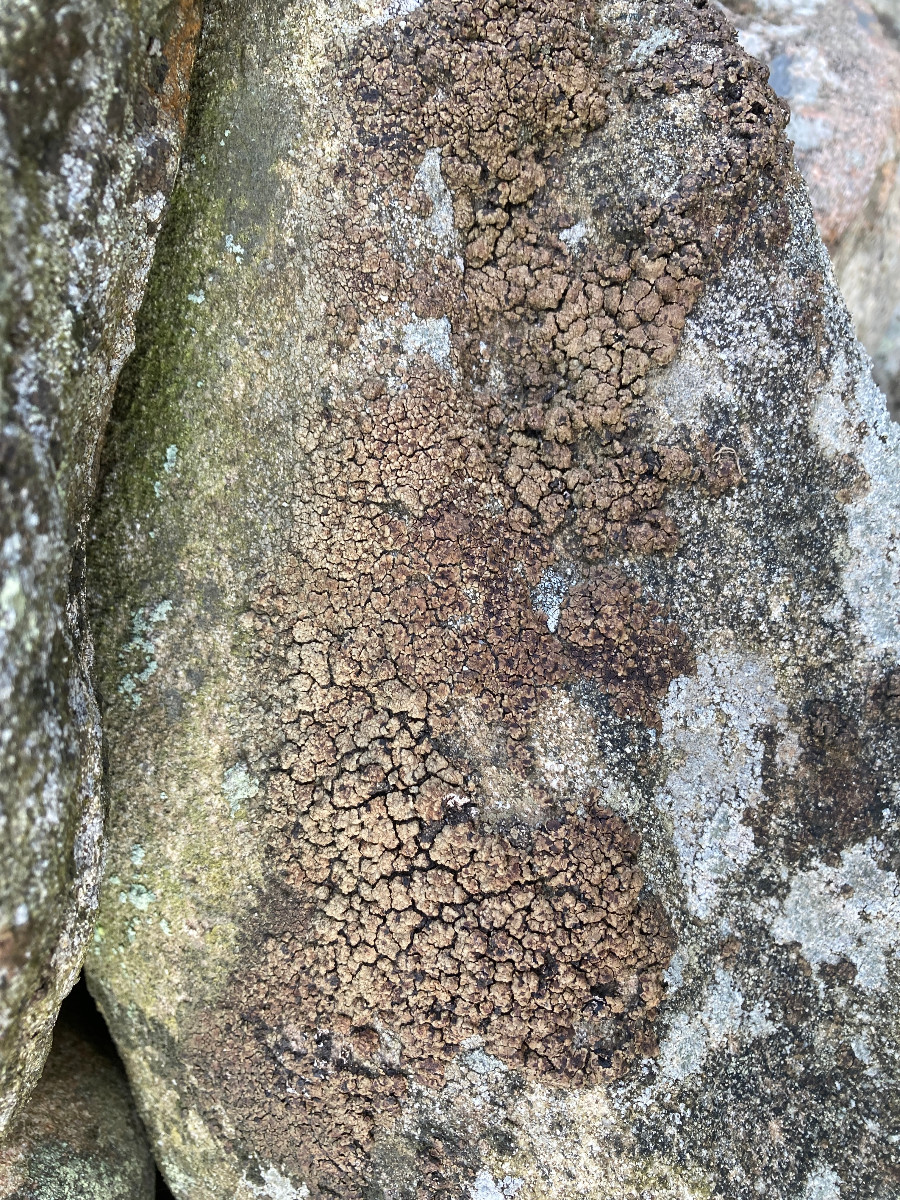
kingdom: Fungi
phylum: Ascomycota
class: Lecanoromycetes
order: Acarosporales
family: Acarosporaceae
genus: Acarospora
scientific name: Acarospora fuscata
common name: brun småsporelav
